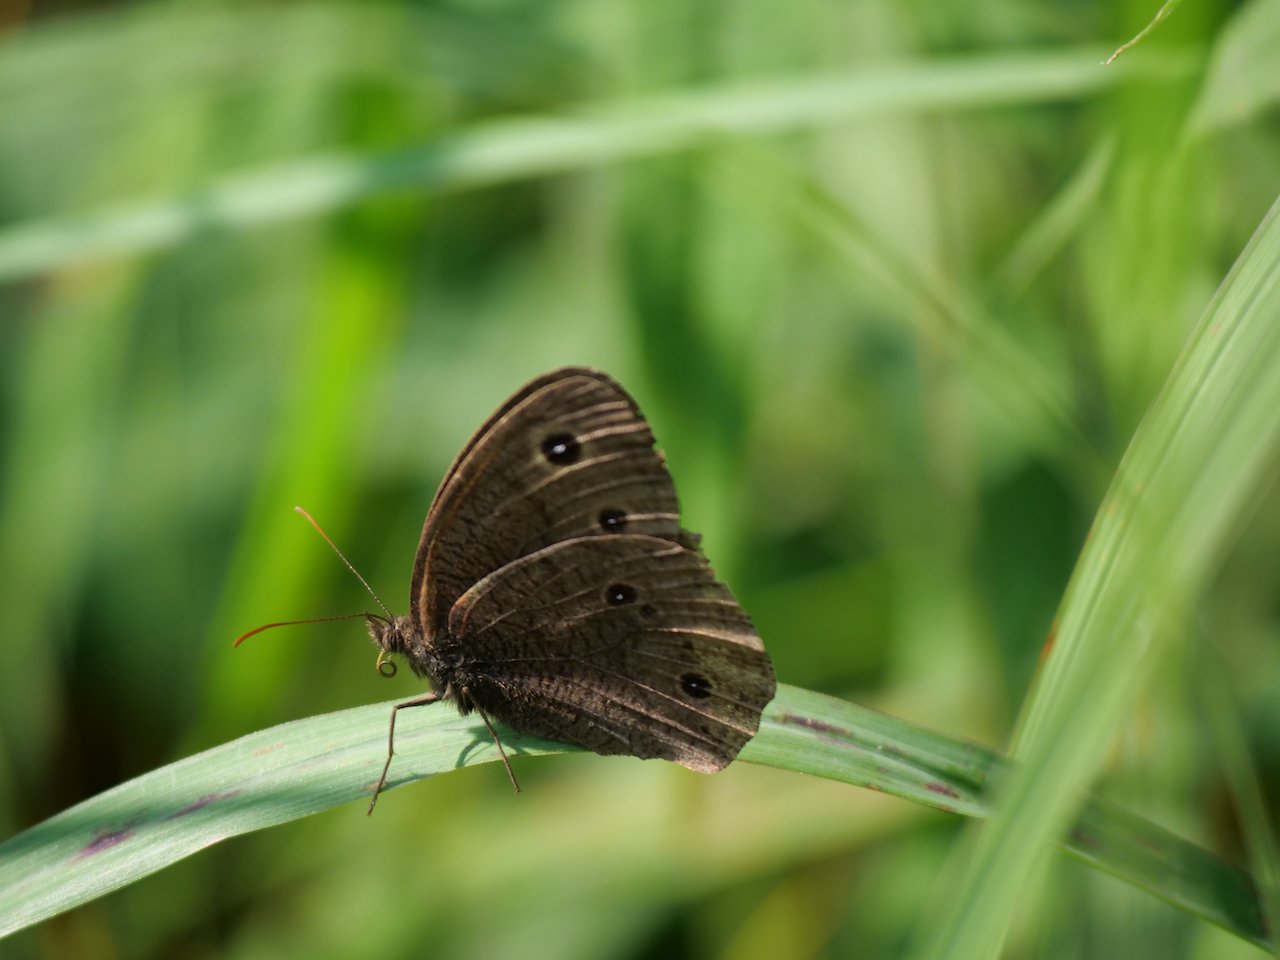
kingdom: Animalia
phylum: Arthropoda
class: Insecta
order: Lepidoptera
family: Nymphalidae
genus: Cercyonis
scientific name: Cercyonis pegala
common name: Common Wood-Nymph
